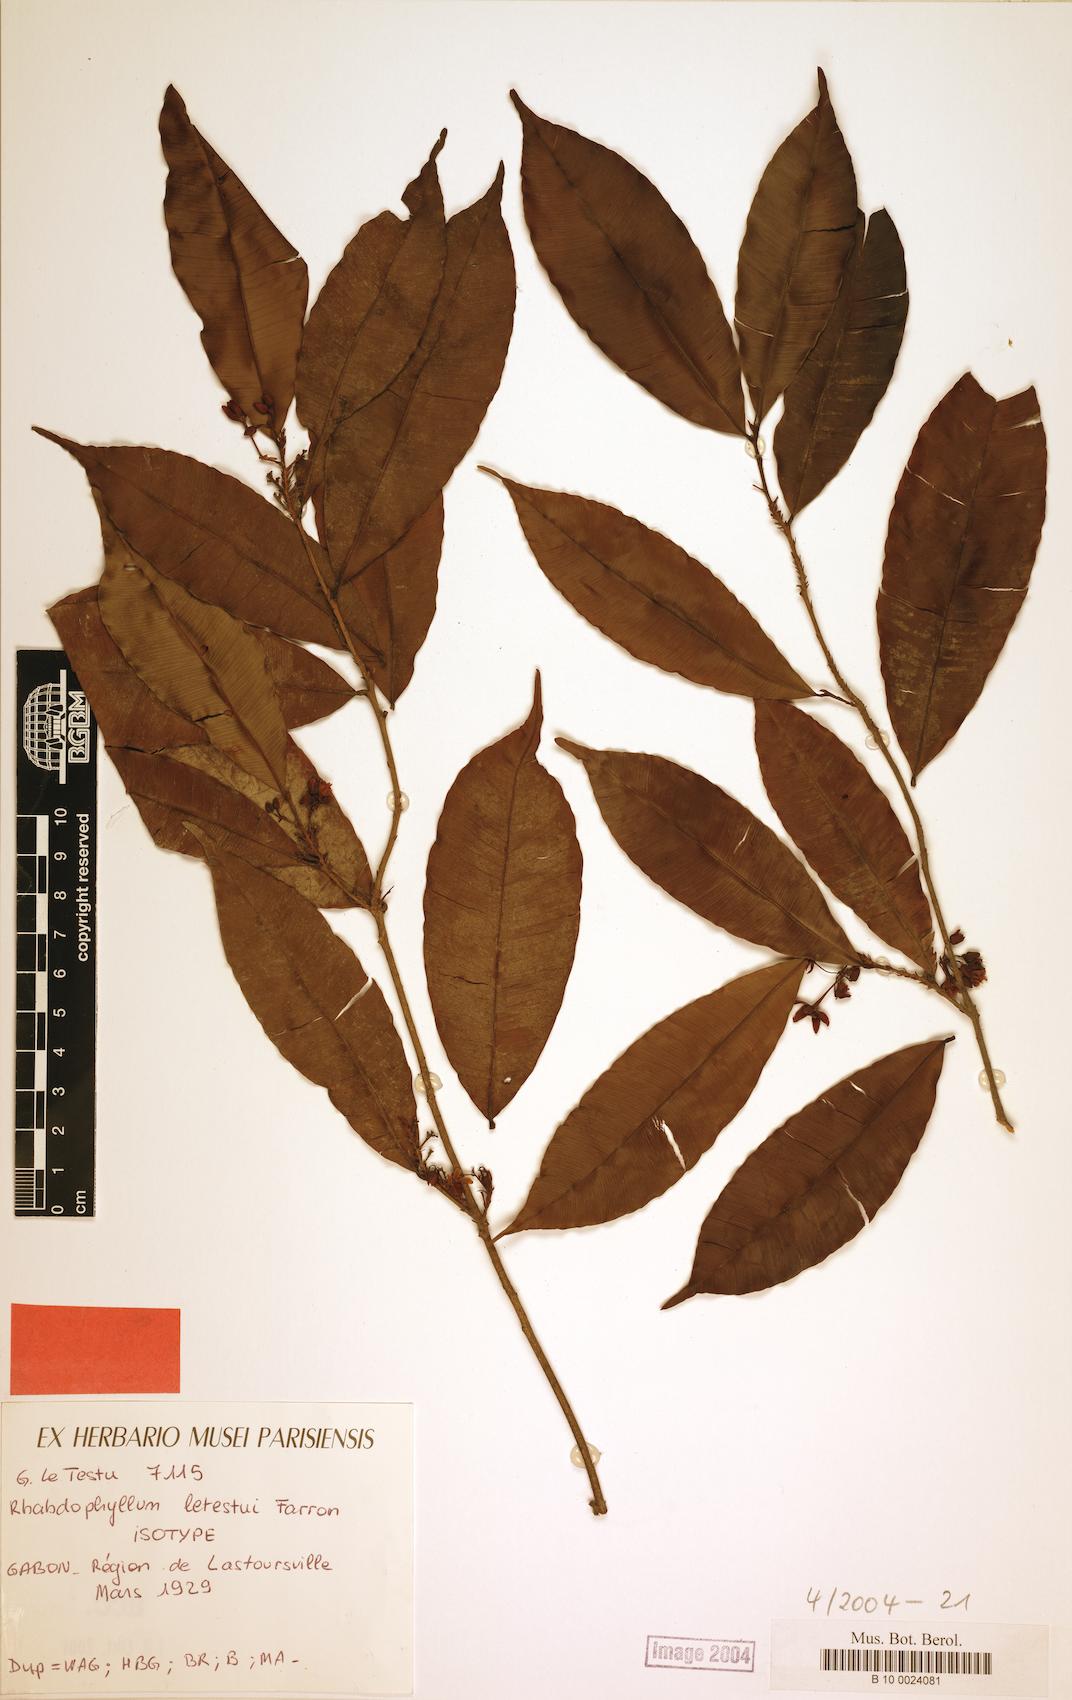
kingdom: Plantae
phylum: Tracheophyta
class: Magnoliopsida
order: Malpighiales
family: Ochnaceae
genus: Rhabdophyllum
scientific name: Rhabdophyllum letestui
